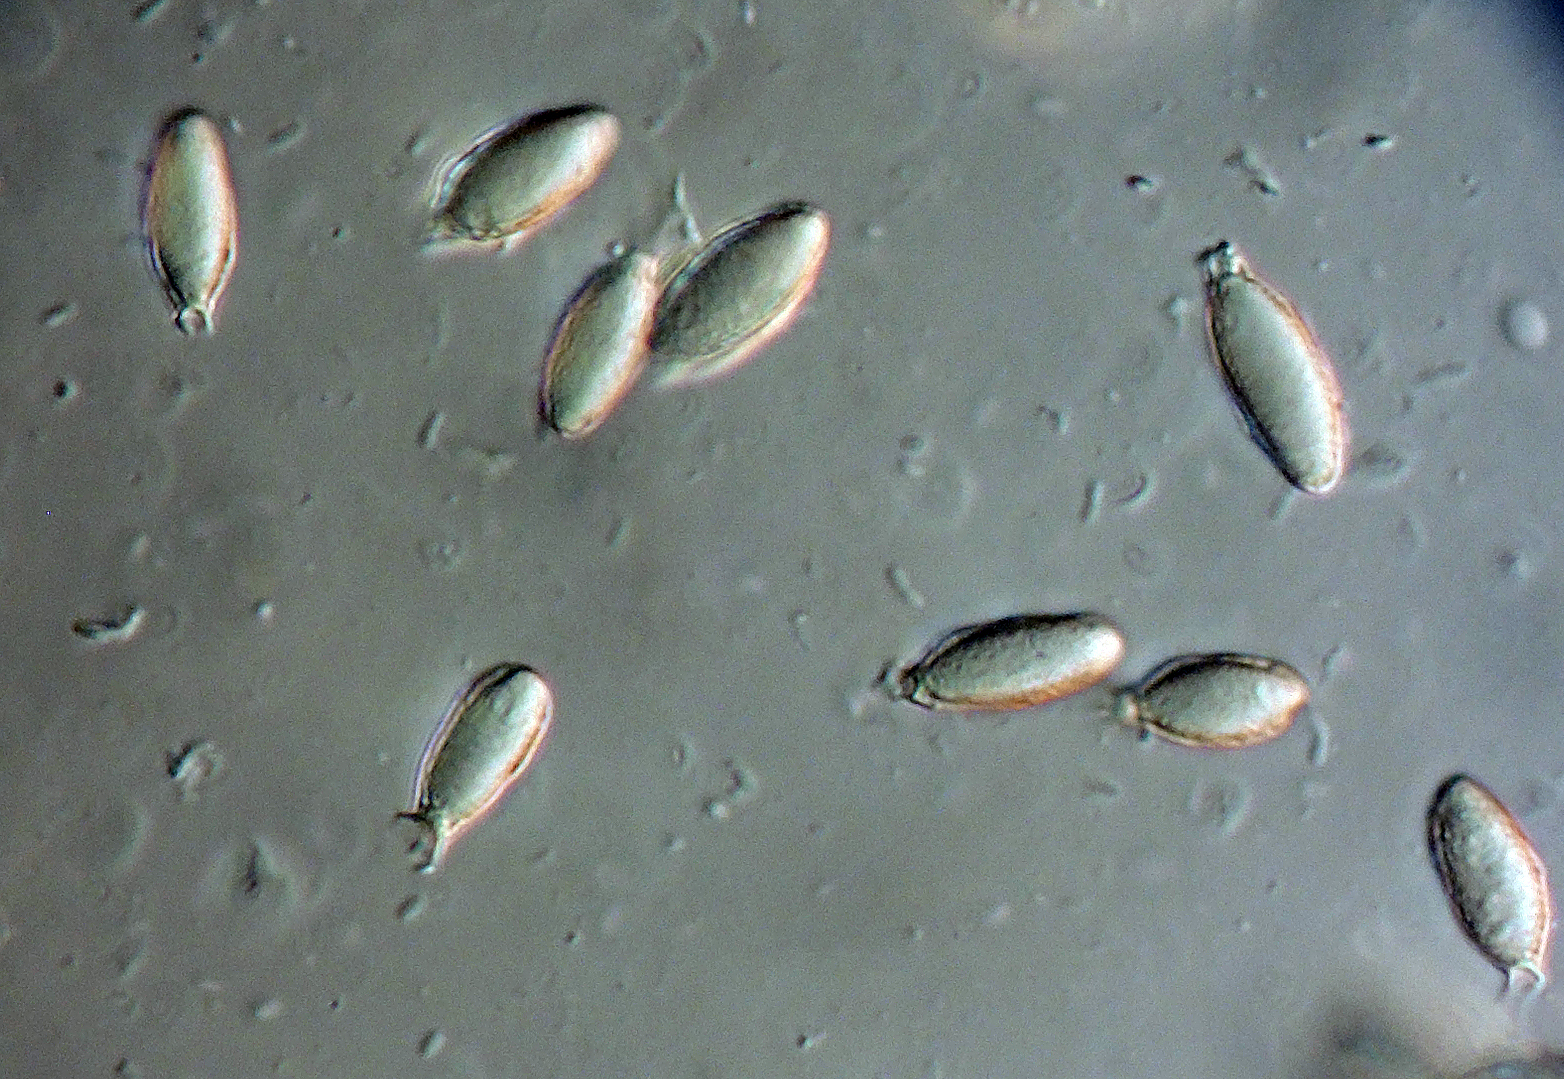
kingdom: Fungi
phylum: Basidiomycota
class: Agaricomycetes
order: Hysterangiales
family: Hysterangiaceae
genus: Statesia
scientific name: Statesia pompholyx
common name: brunkødet rodtrøffel
